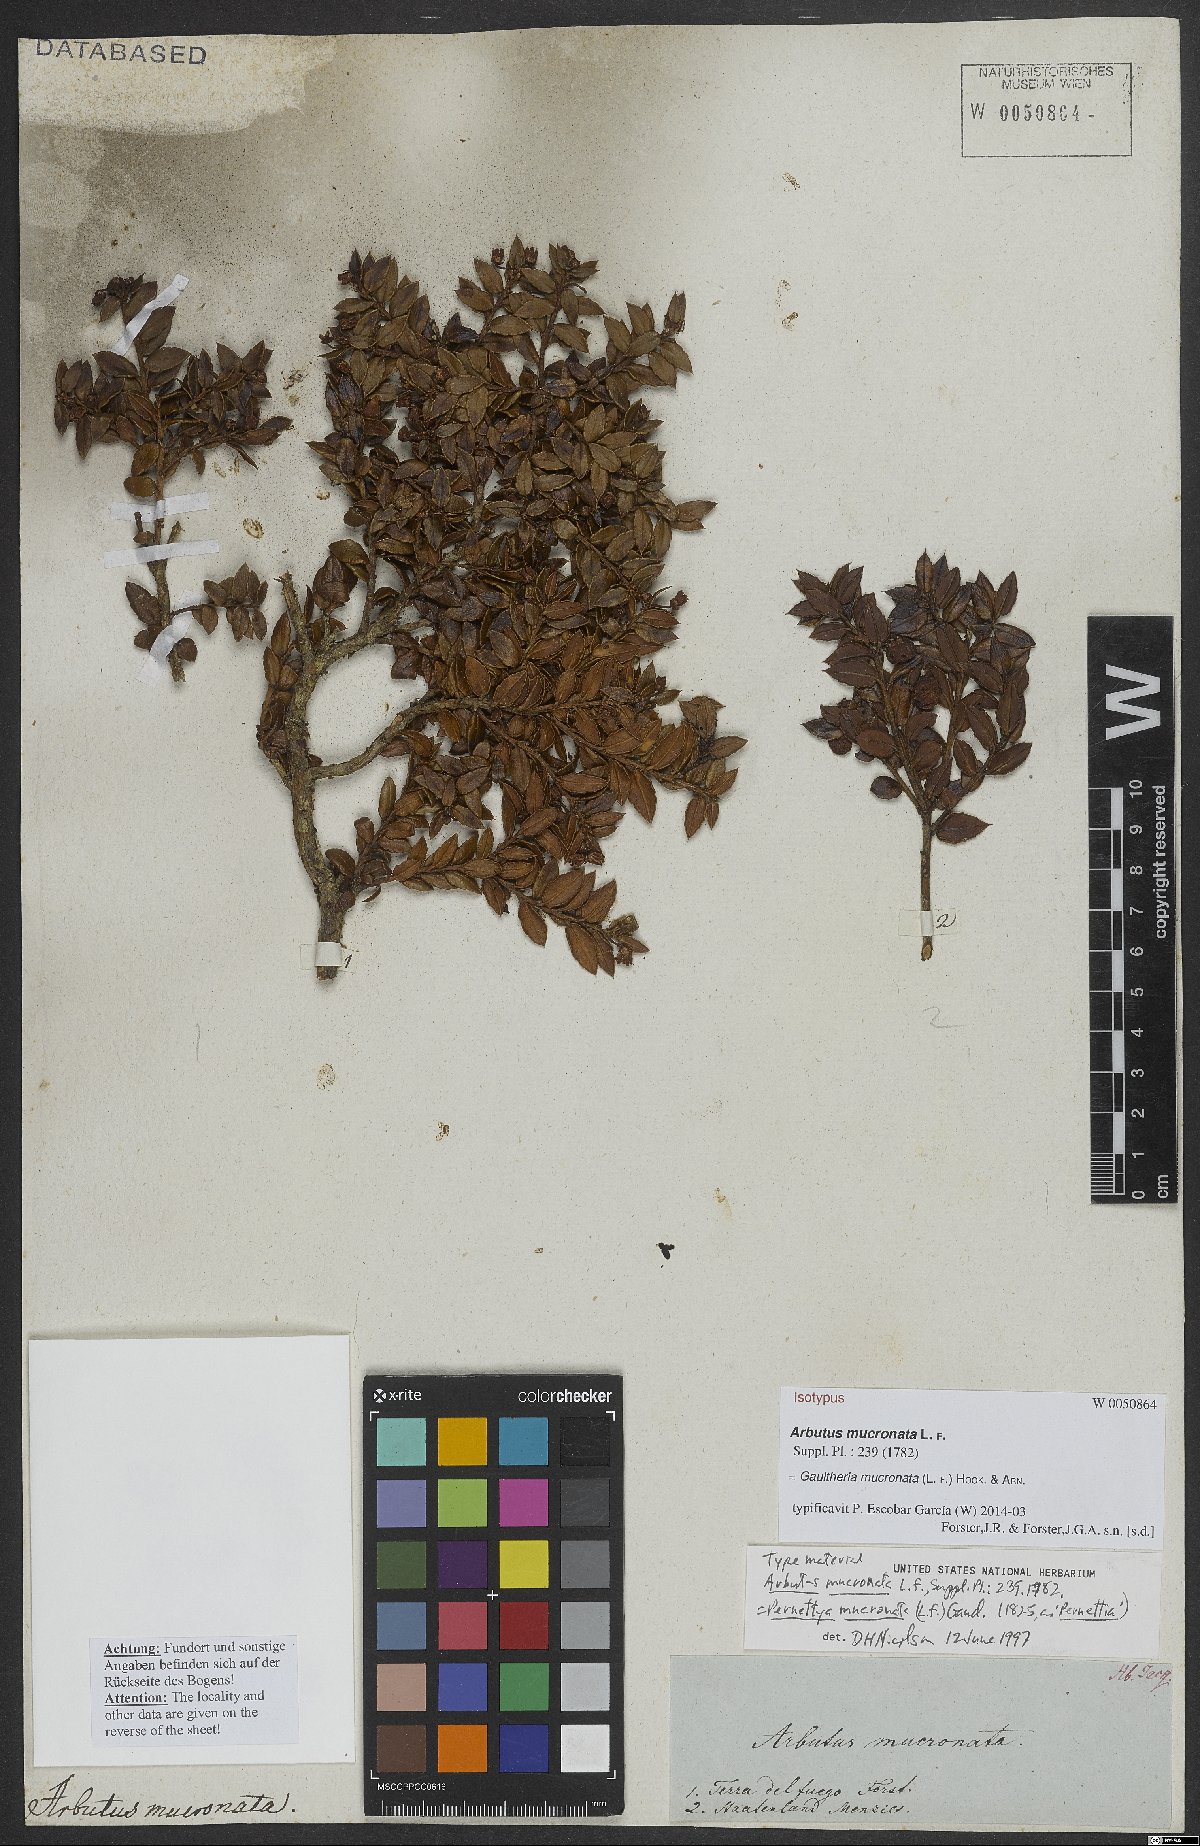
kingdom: Plantae
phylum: Tracheophyta
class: Magnoliopsida
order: Ericales
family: Ericaceae
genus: Gaultheria
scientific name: Gaultheria mucronata
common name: Prickly heath
